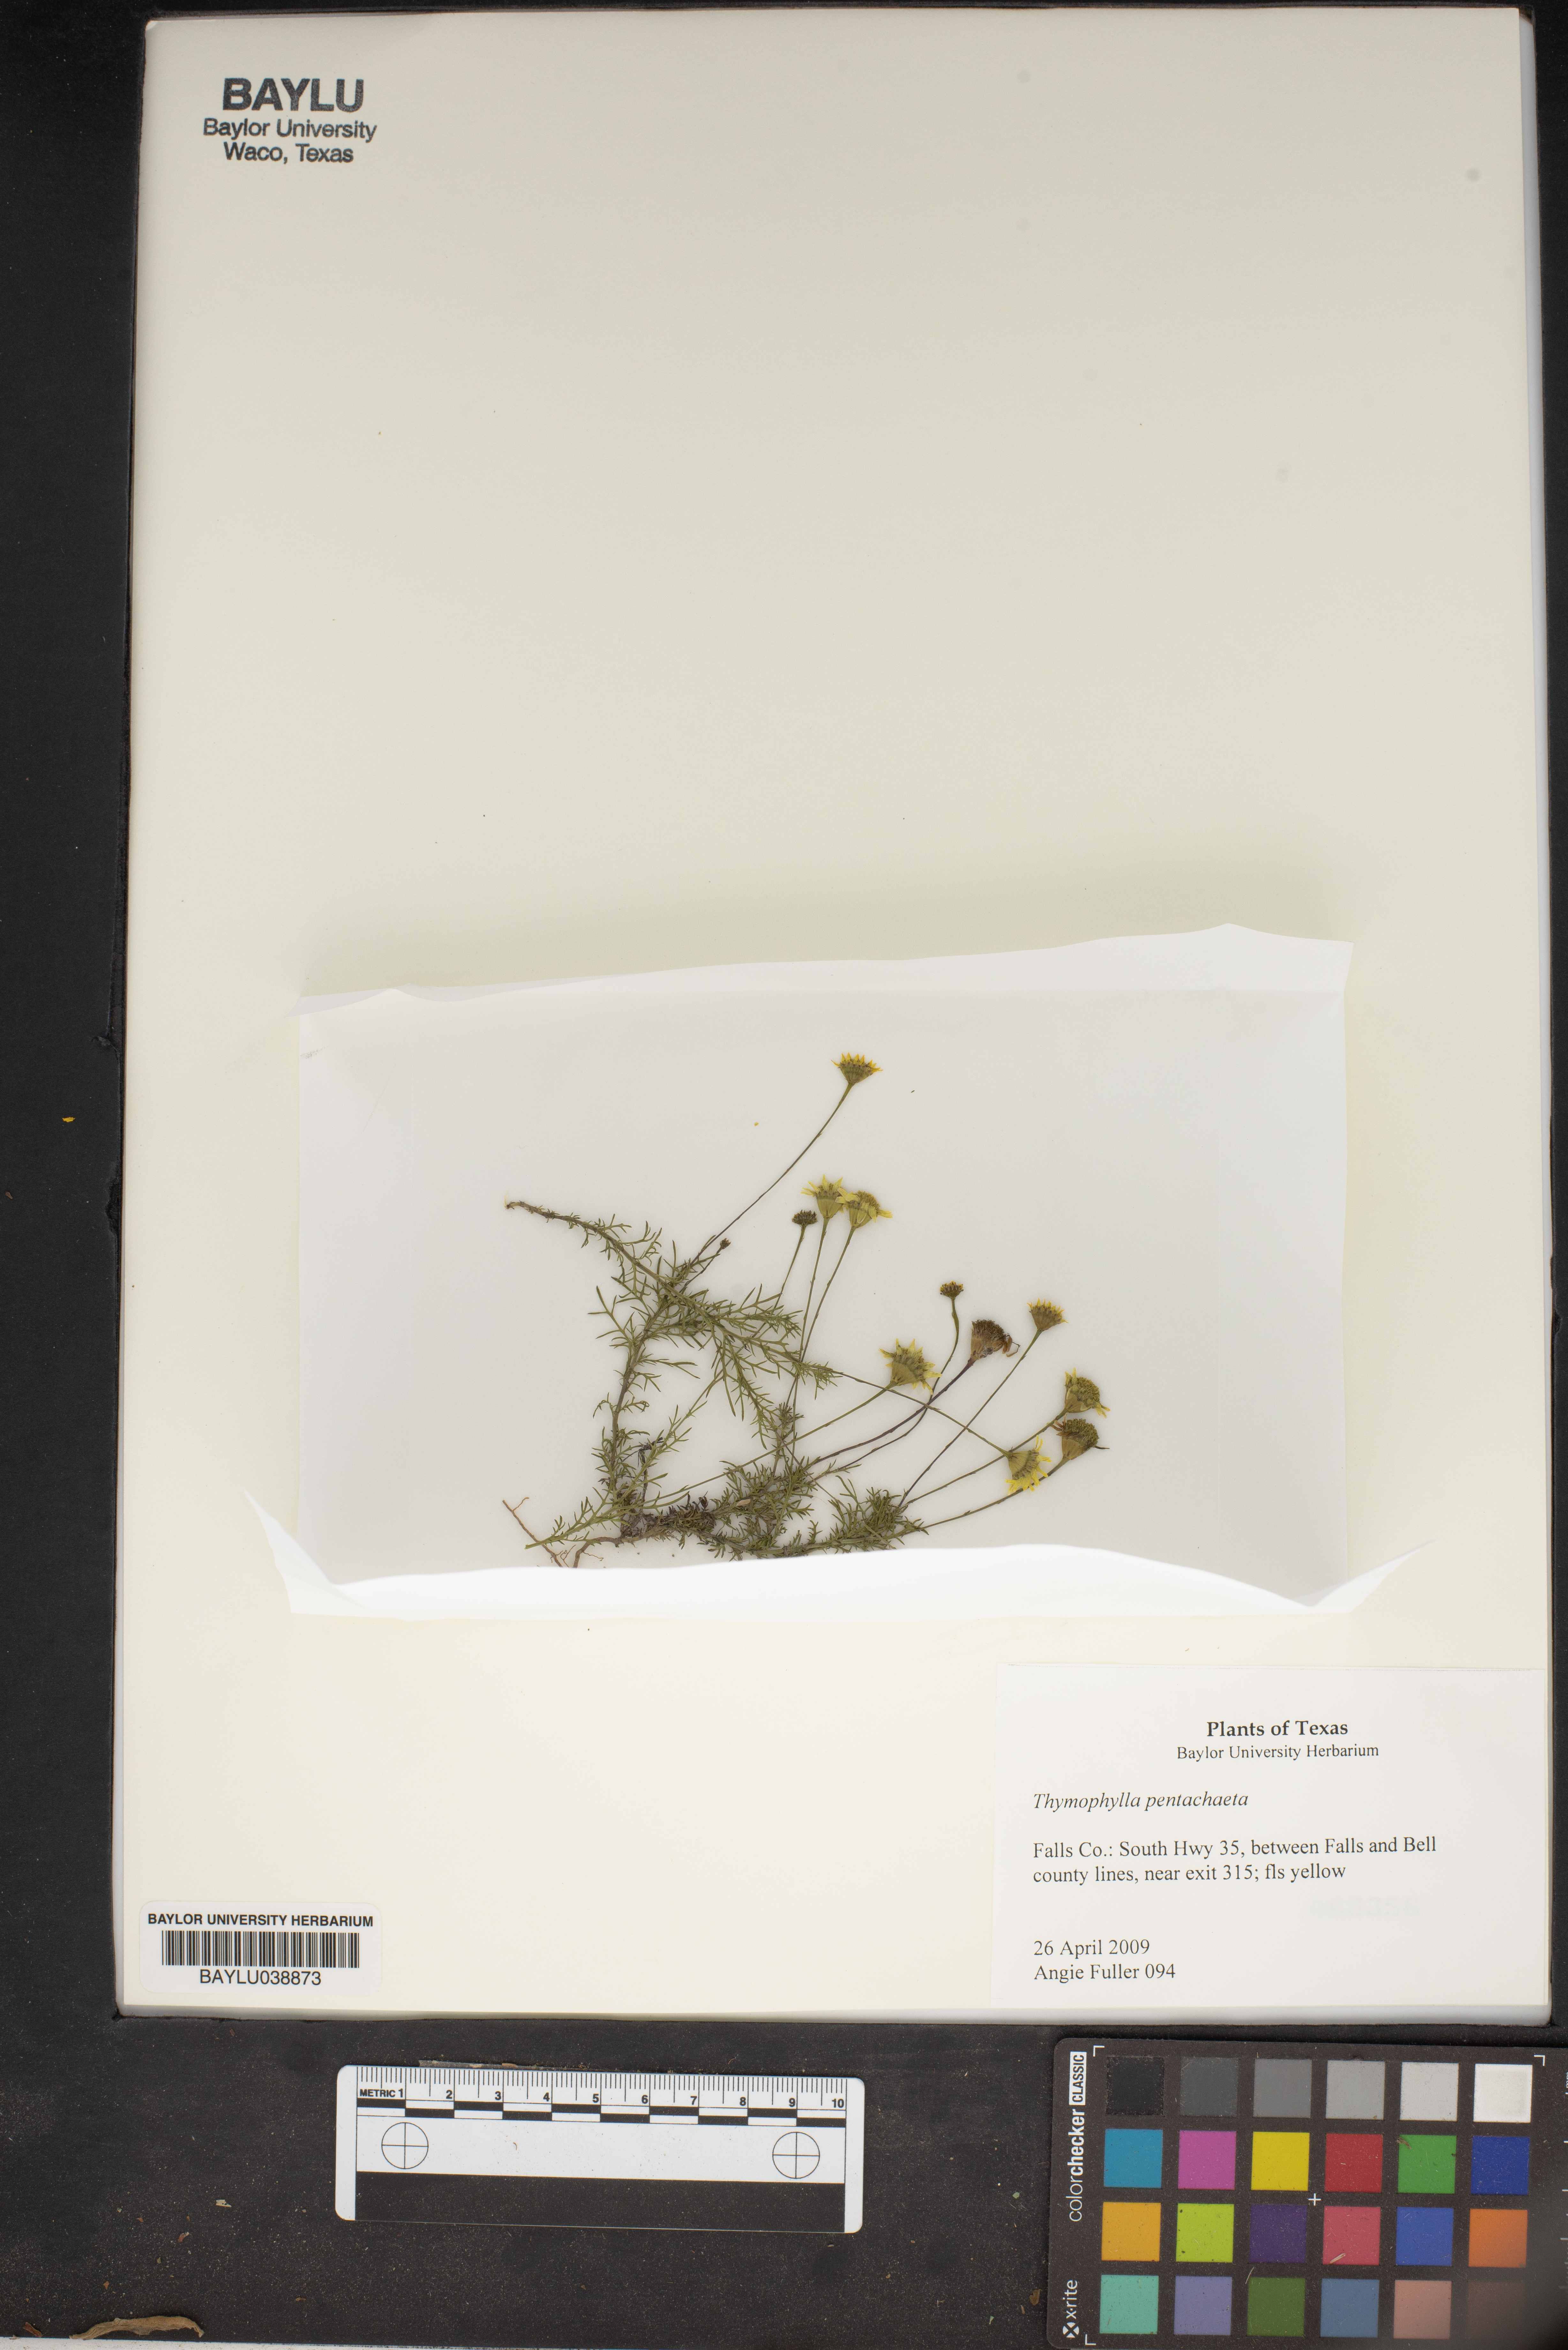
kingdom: Plantae
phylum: Tracheophyta
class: Magnoliopsida
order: Asterales
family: Asteraceae
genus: Thymophylla
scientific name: Thymophylla pentachaeta
